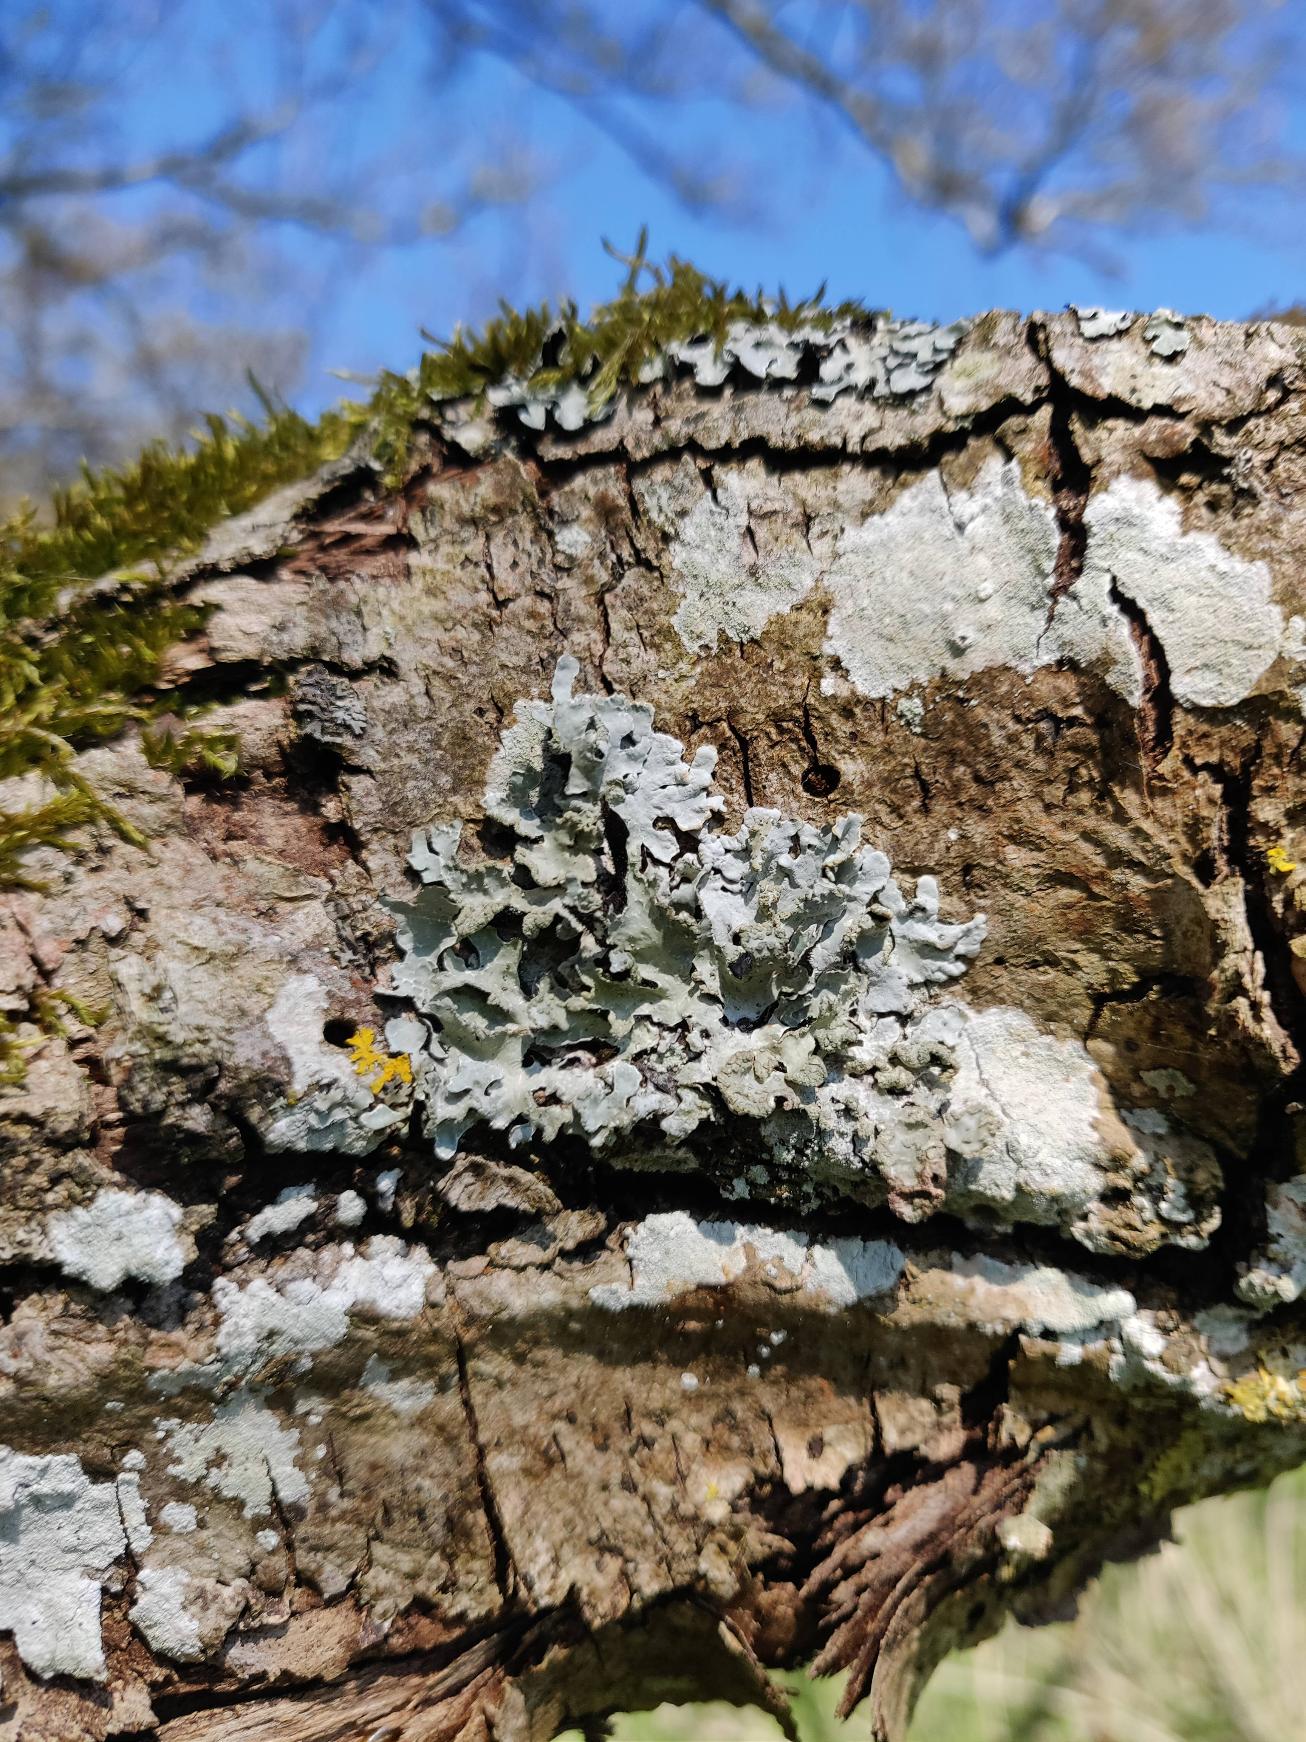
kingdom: Fungi
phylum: Ascomycota
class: Lecanoromycetes
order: Lecanorales
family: Parmeliaceae
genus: Parmelia
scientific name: Parmelia sulcata
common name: Rynket skållav
